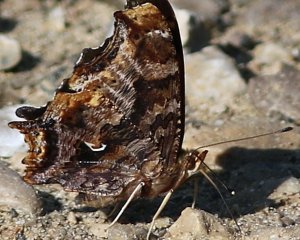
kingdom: Animalia
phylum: Arthropoda
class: Insecta
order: Lepidoptera
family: Nymphalidae
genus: Polygonia
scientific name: Polygonia comma
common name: Eastern Comma
